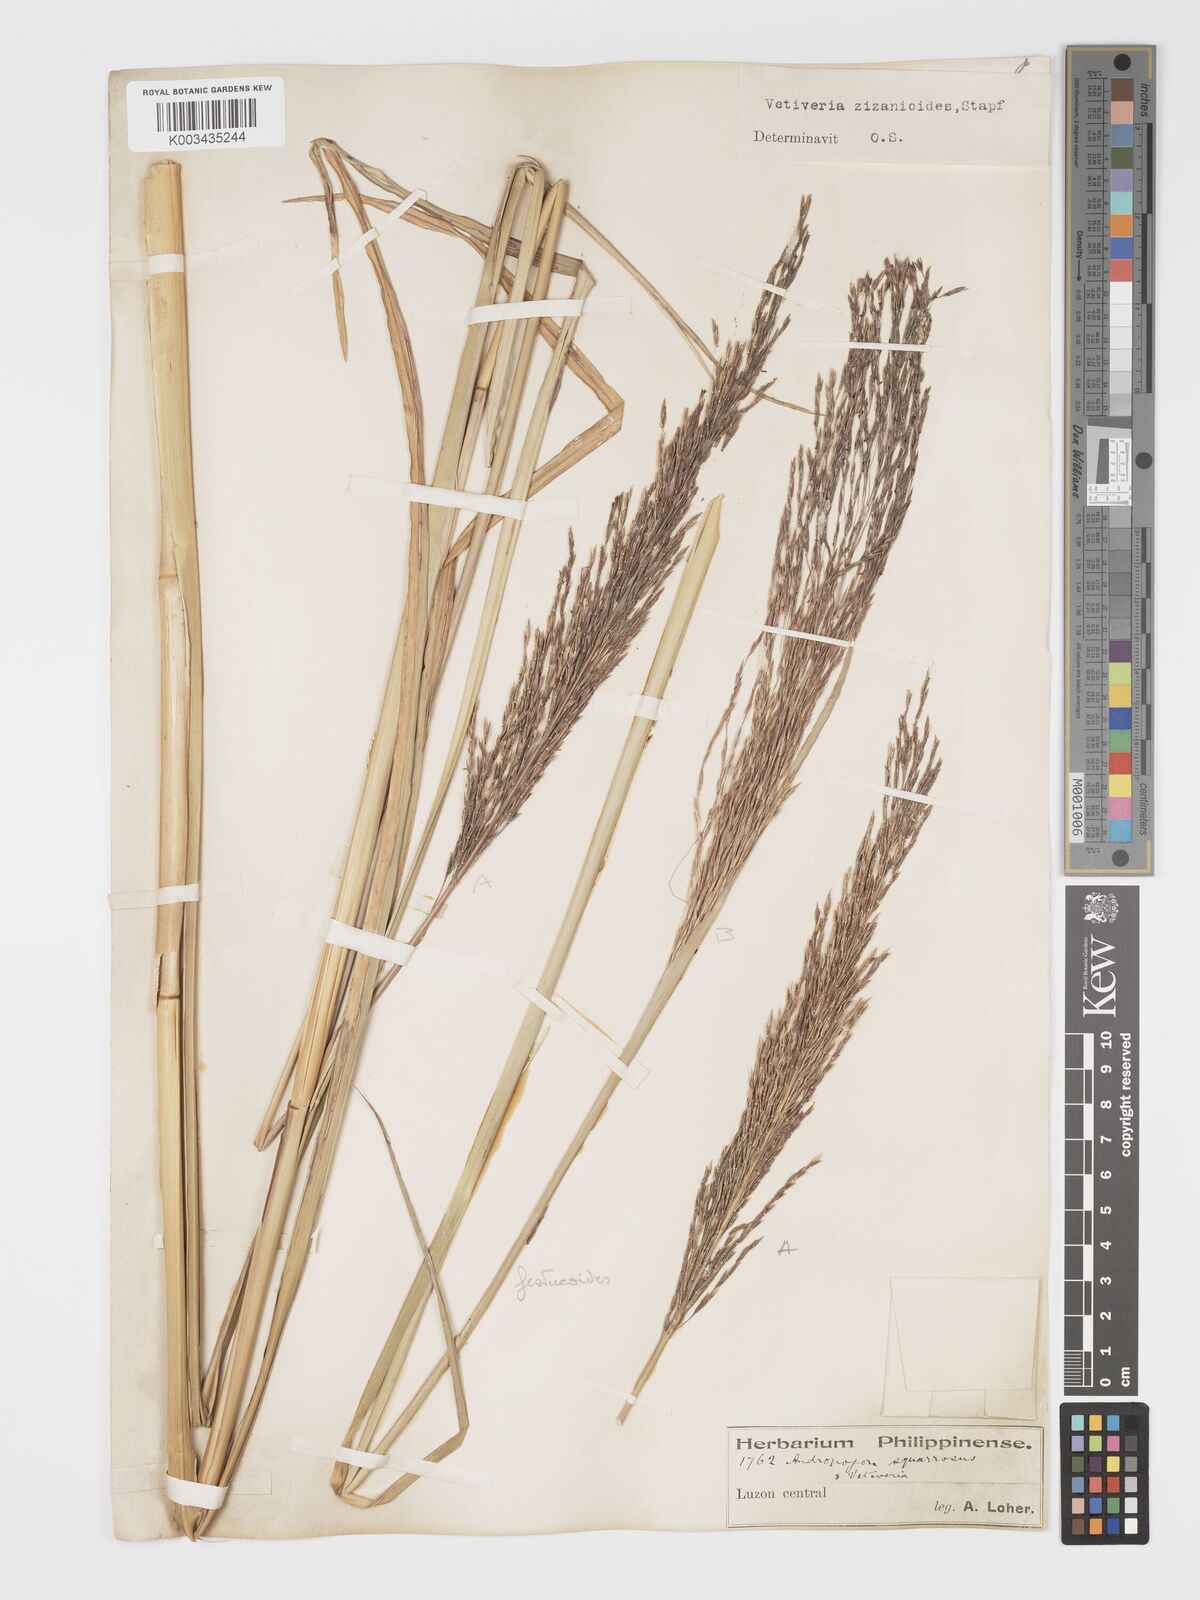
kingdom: Plantae
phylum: Tracheophyta
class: Liliopsida
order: Poales
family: Poaceae
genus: Chrysopogon
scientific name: Chrysopogon festucoides
